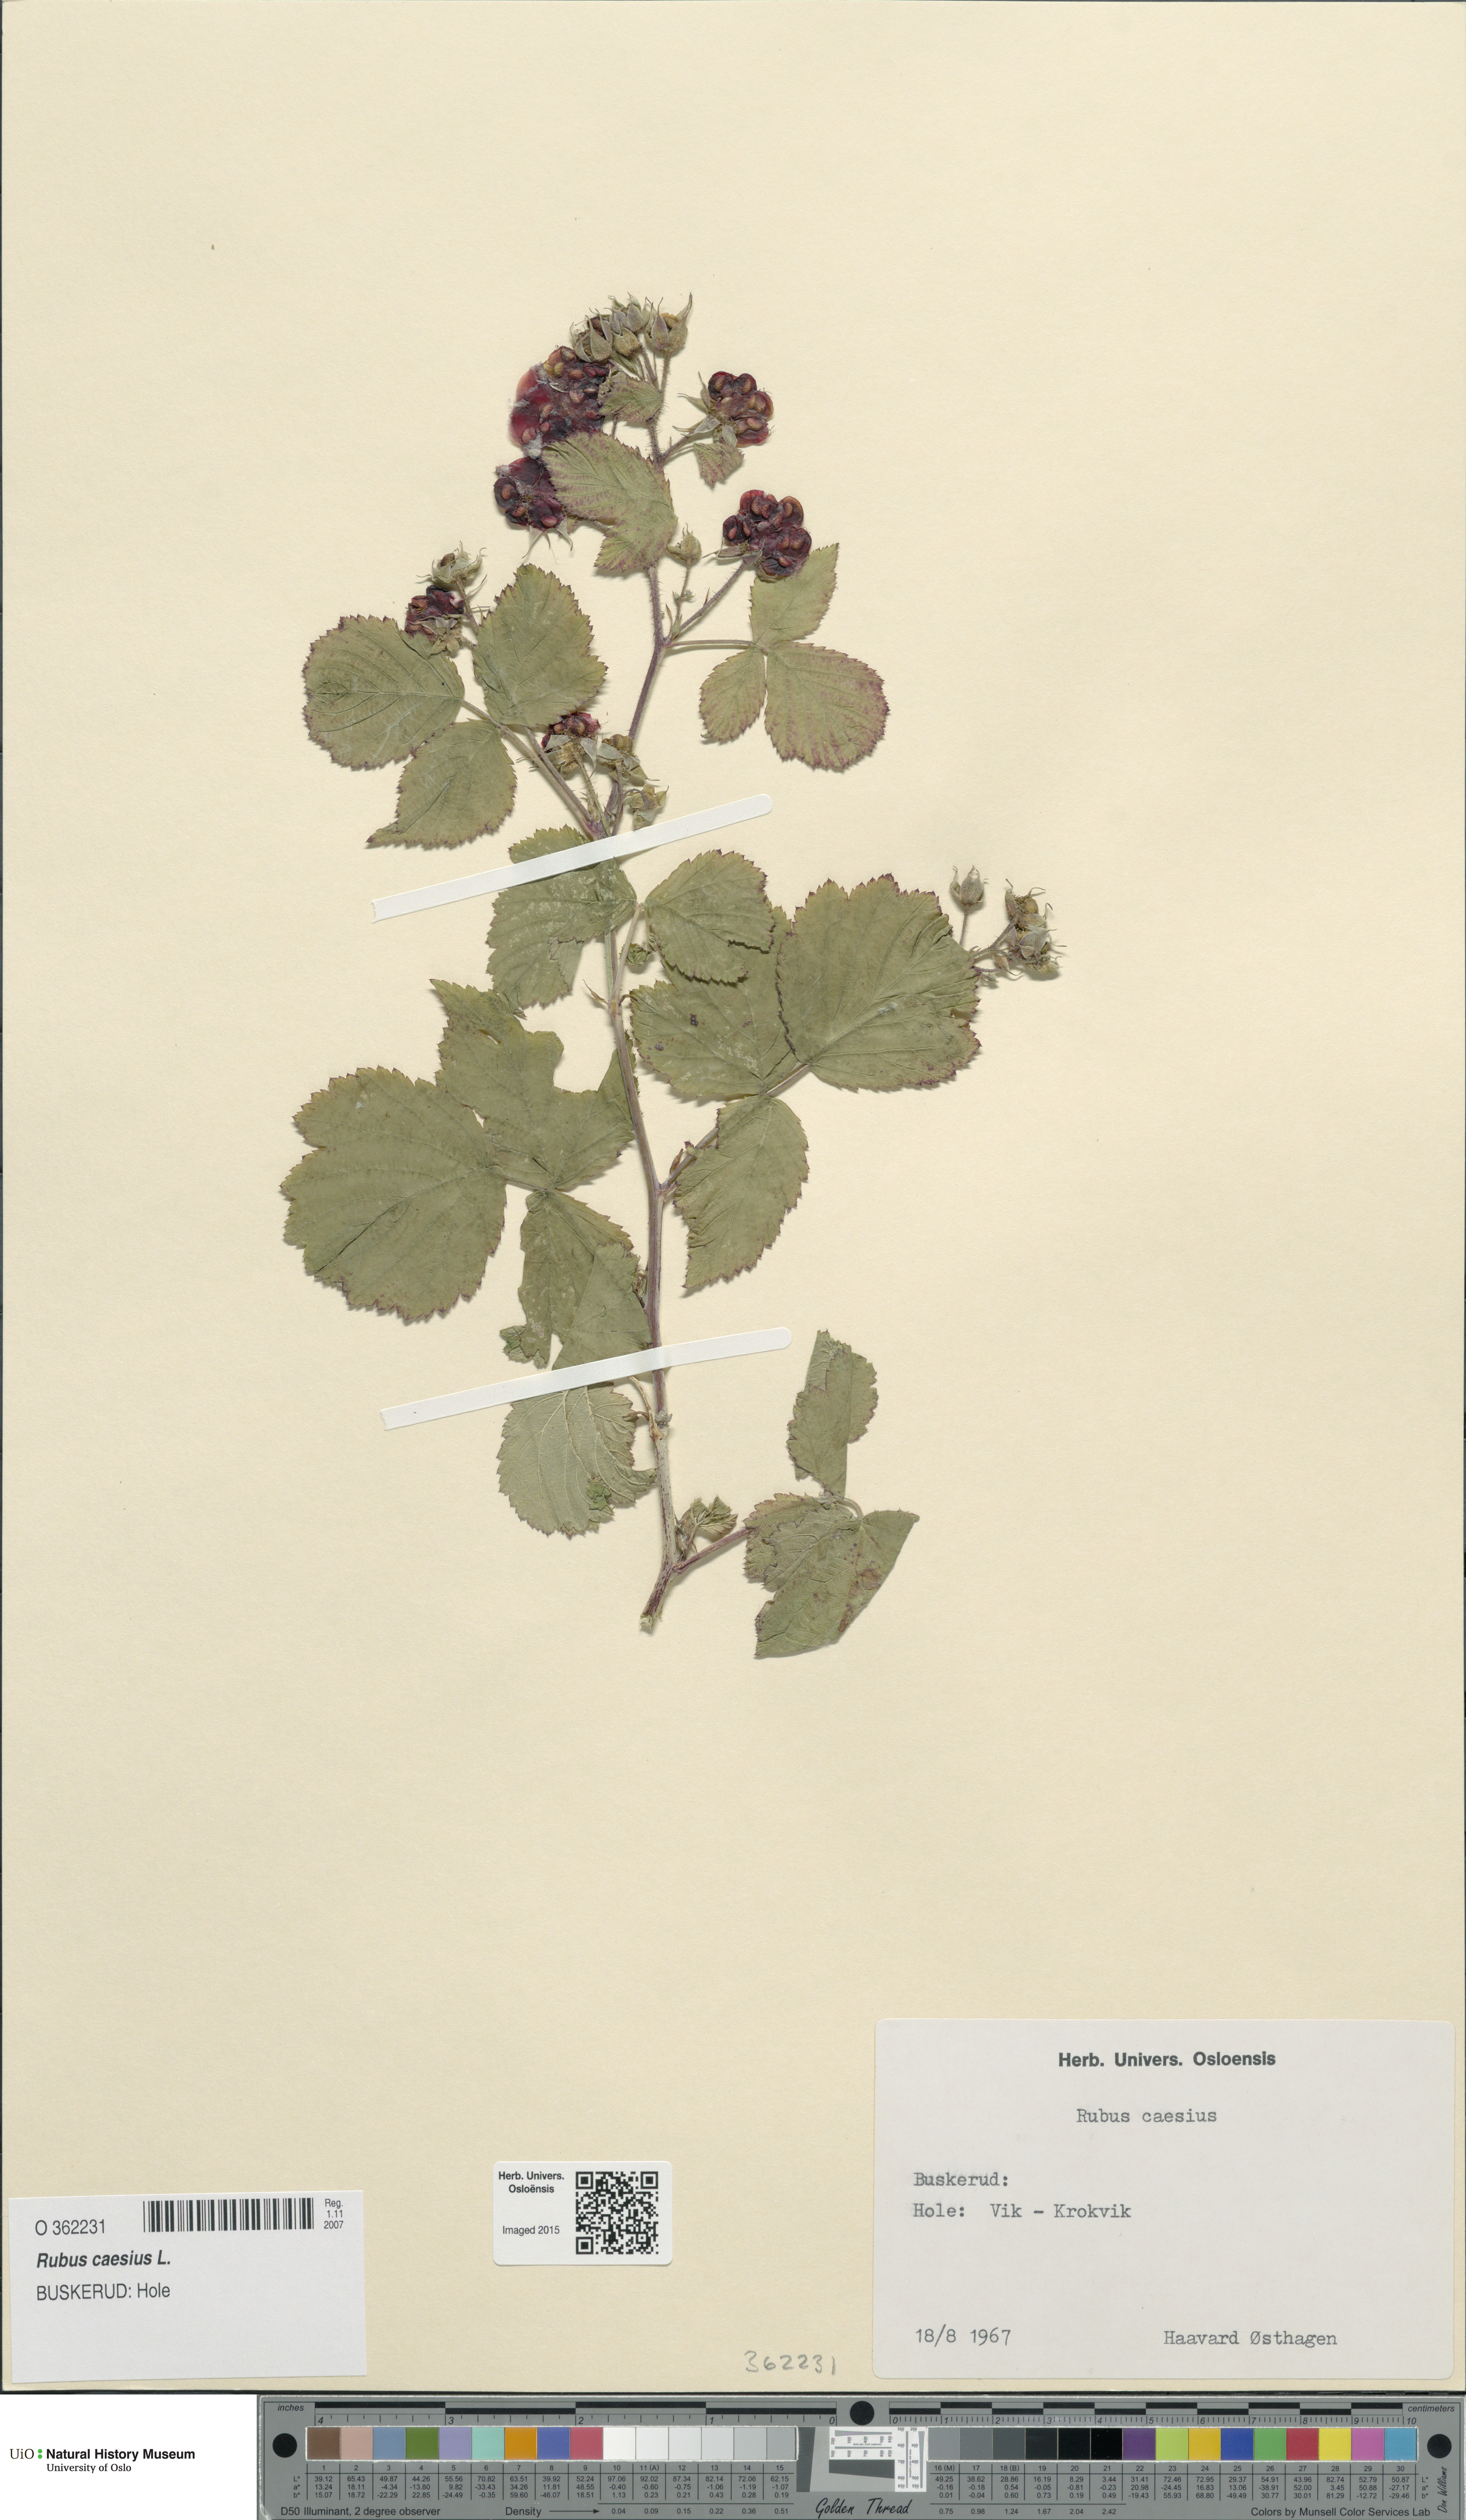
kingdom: Plantae
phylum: Tracheophyta
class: Magnoliopsida
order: Rosales
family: Rosaceae
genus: Rubus
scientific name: Rubus caesius
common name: Dewberry
